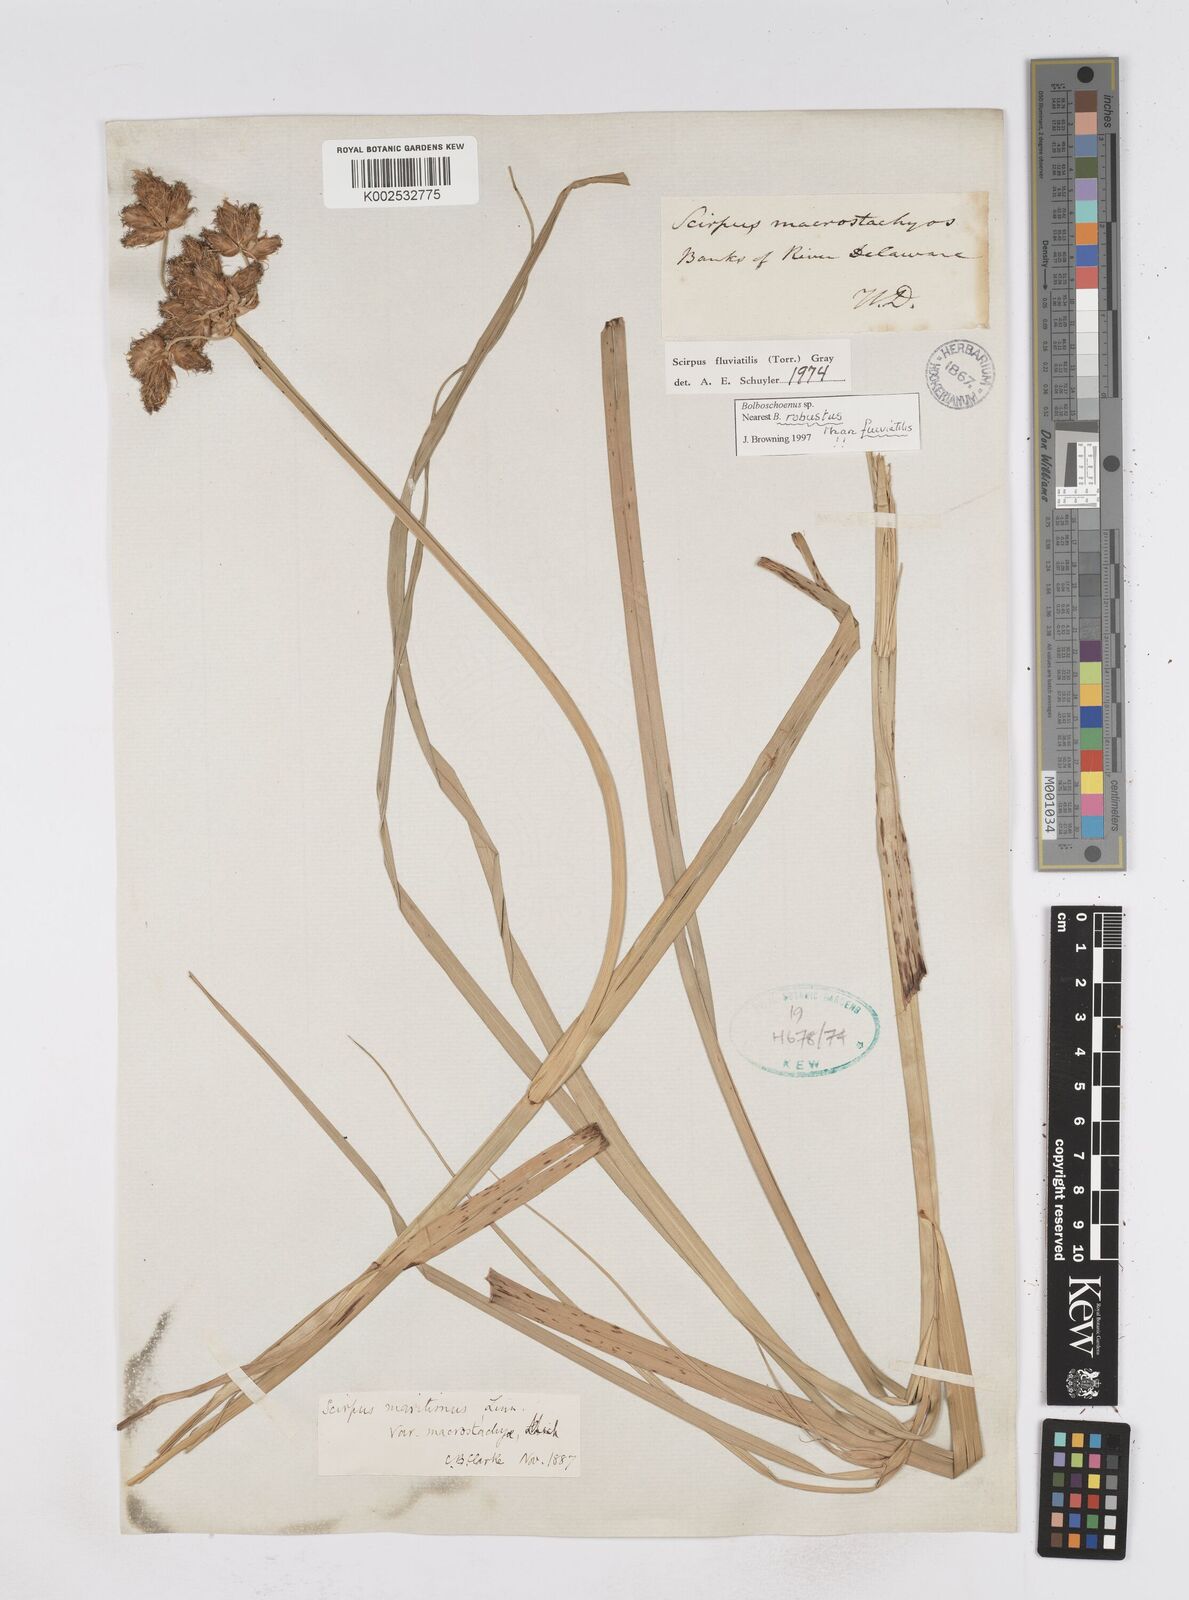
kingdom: Plantae
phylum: Tracheophyta
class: Liliopsida
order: Poales
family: Cyperaceae
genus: Bolboschoenus
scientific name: Bolboschoenus
